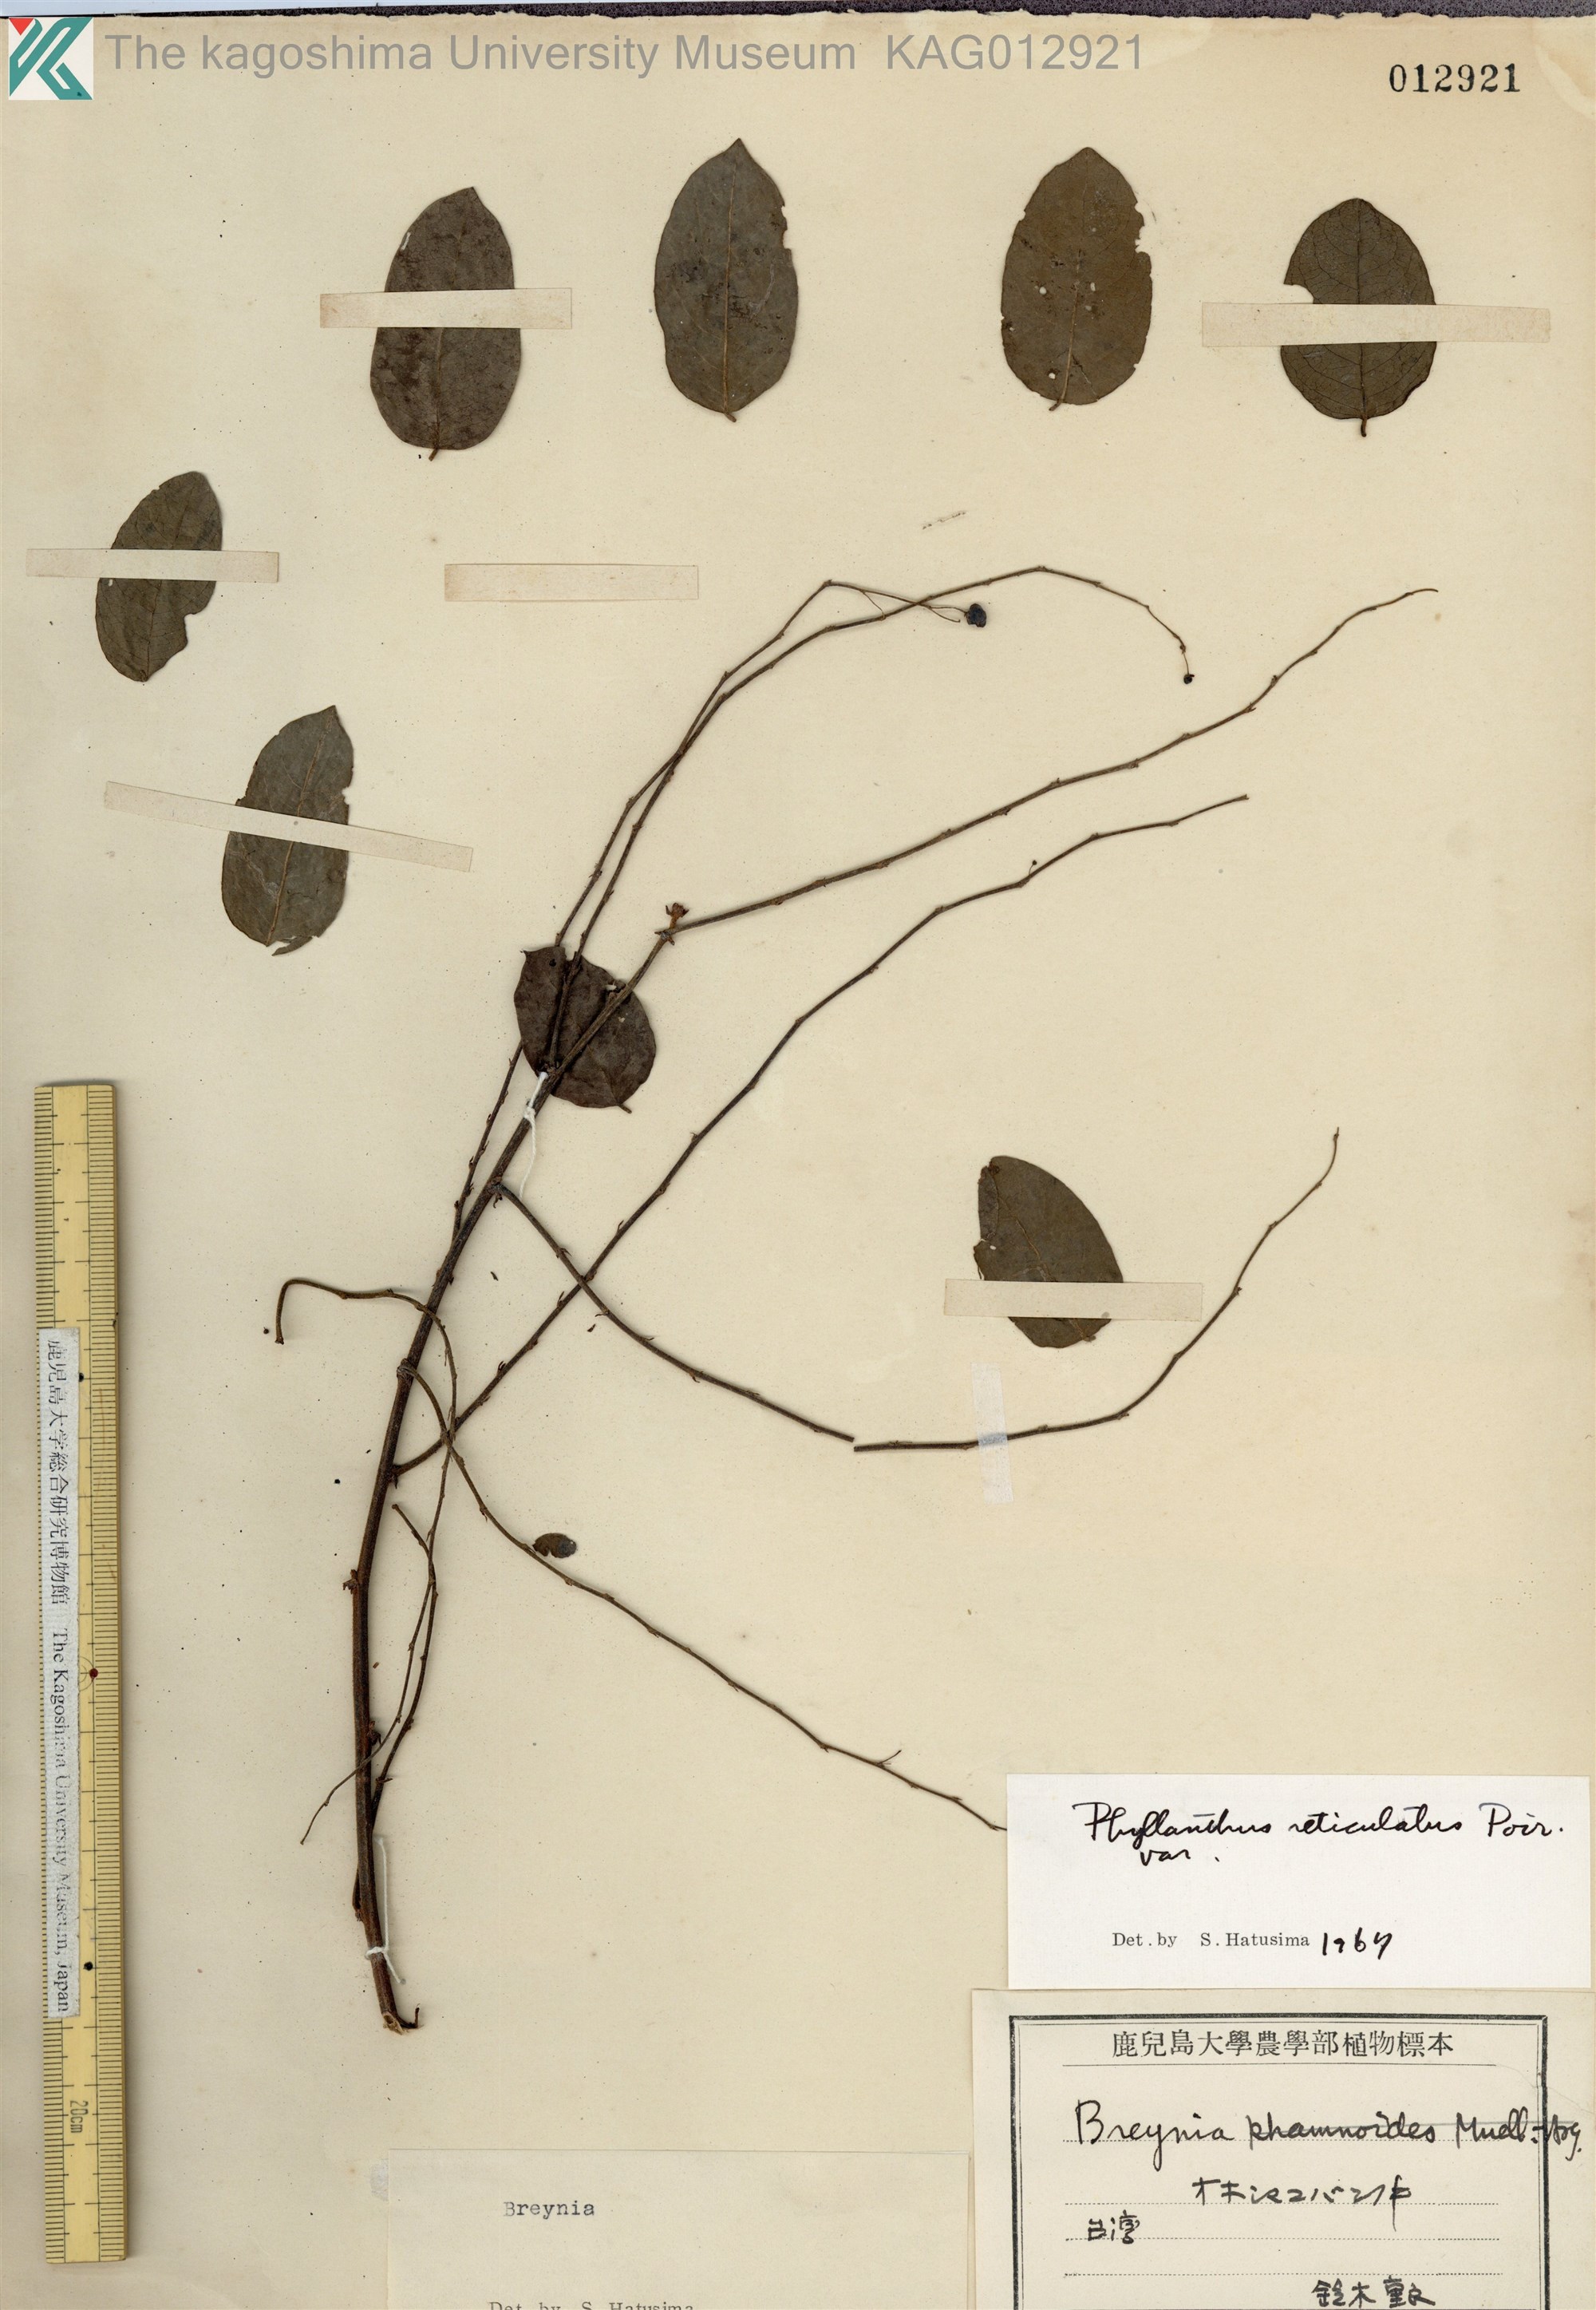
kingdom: Plantae
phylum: Tracheophyta
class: Magnoliopsida
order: Malpighiales
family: Phyllanthaceae
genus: Phyllanthus
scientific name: Phyllanthus reticulatus
